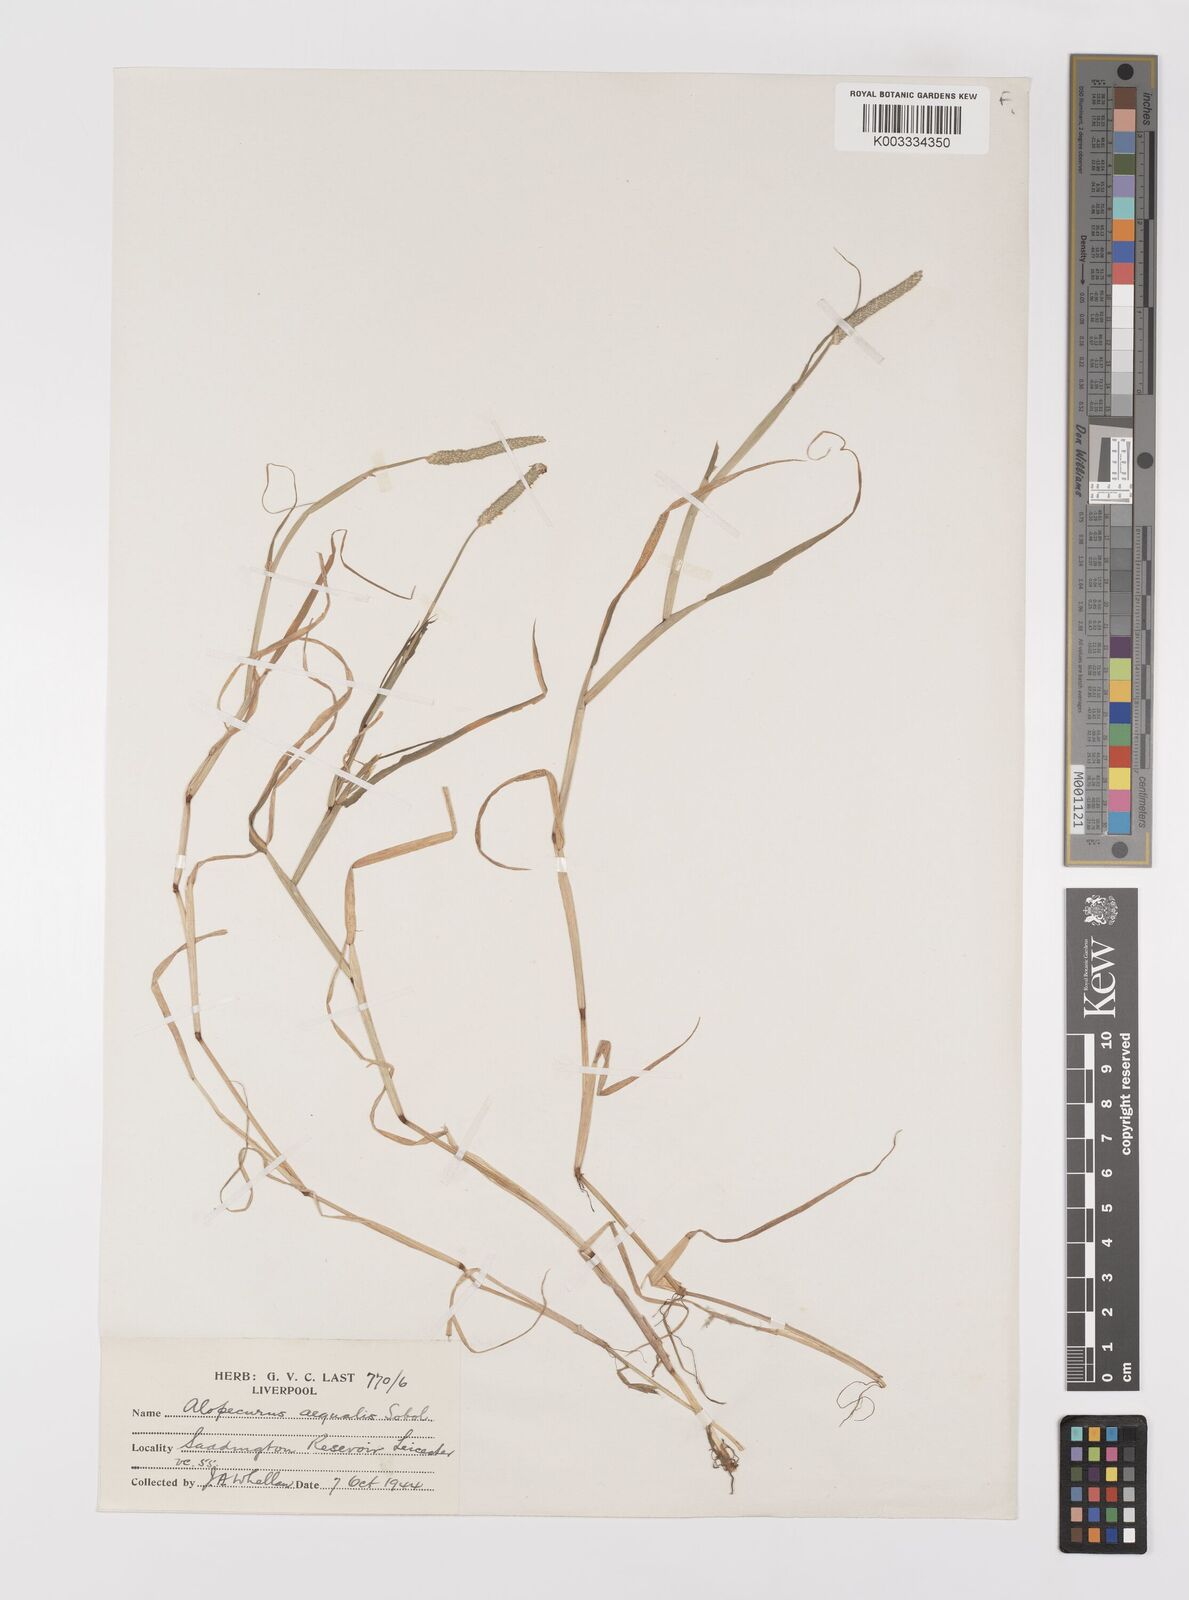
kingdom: Plantae
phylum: Tracheophyta
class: Liliopsida
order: Poales
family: Poaceae
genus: Alopecurus
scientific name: Alopecurus aequalis
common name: Orange foxtail
